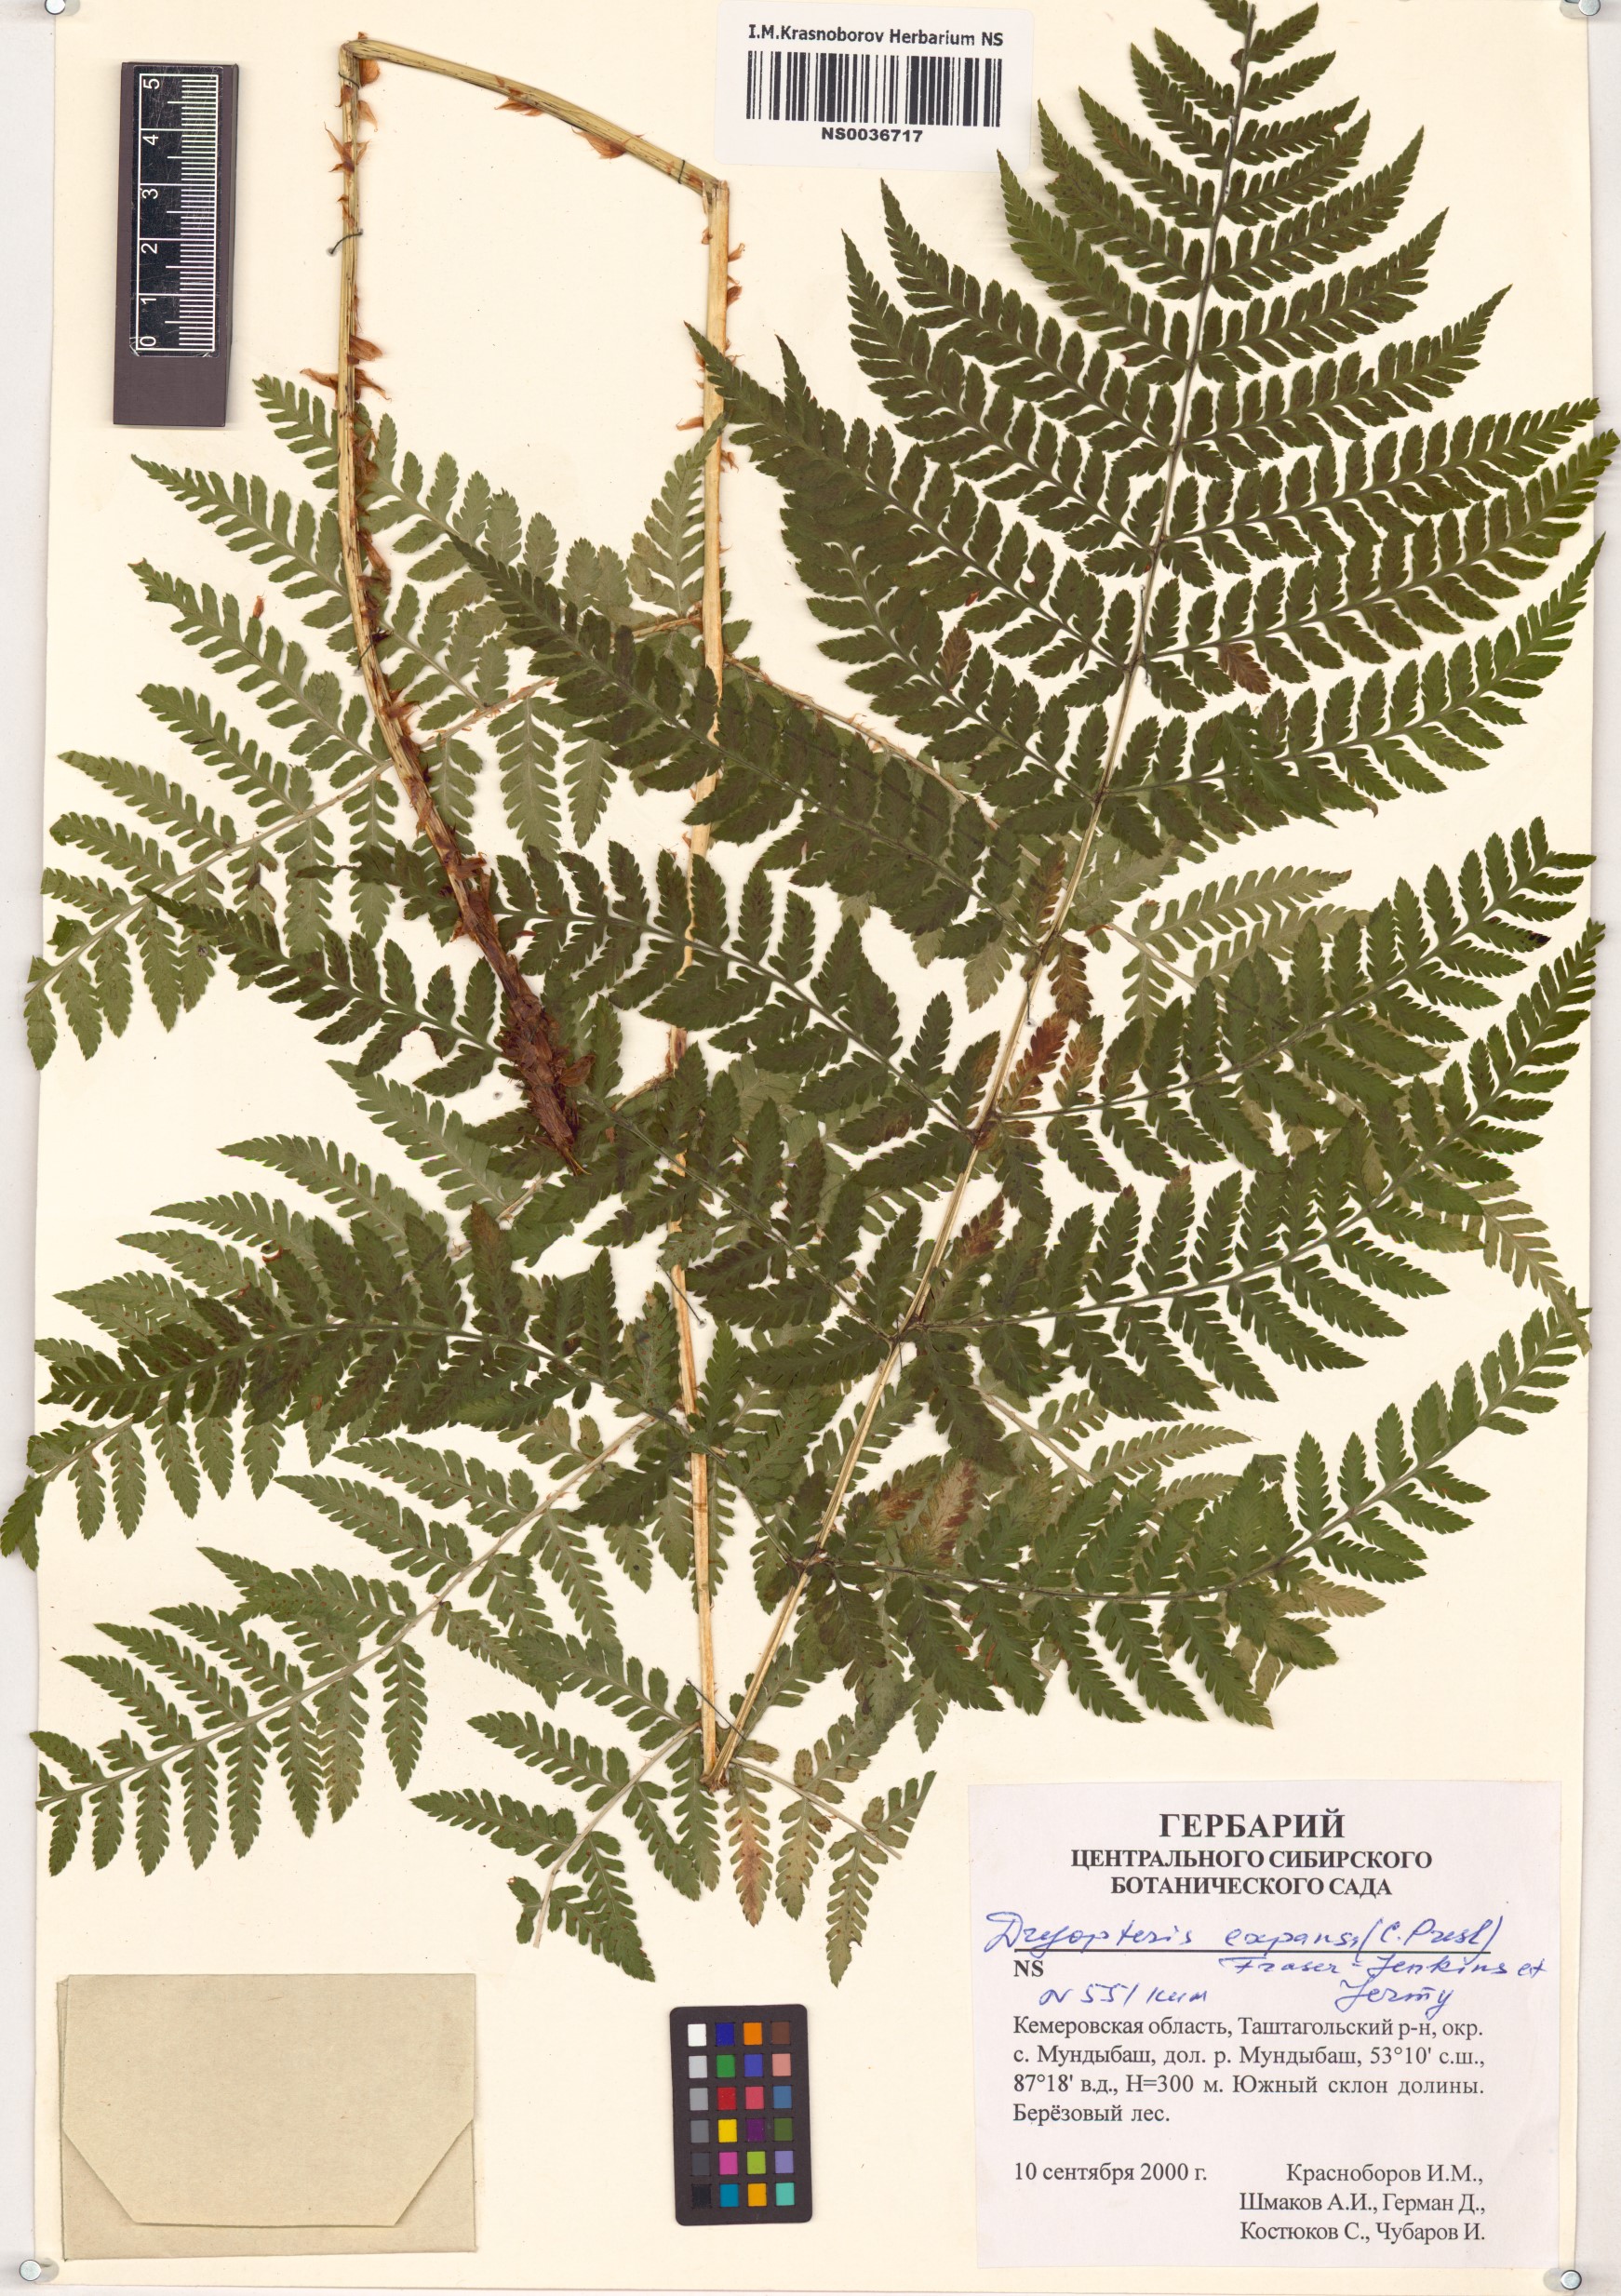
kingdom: Plantae
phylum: Tracheophyta
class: Polypodiopsida
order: Polypodiales
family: Dryopteridaceae
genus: Dryopteris
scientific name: Dryopteris expansa
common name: Northern buckler fern
